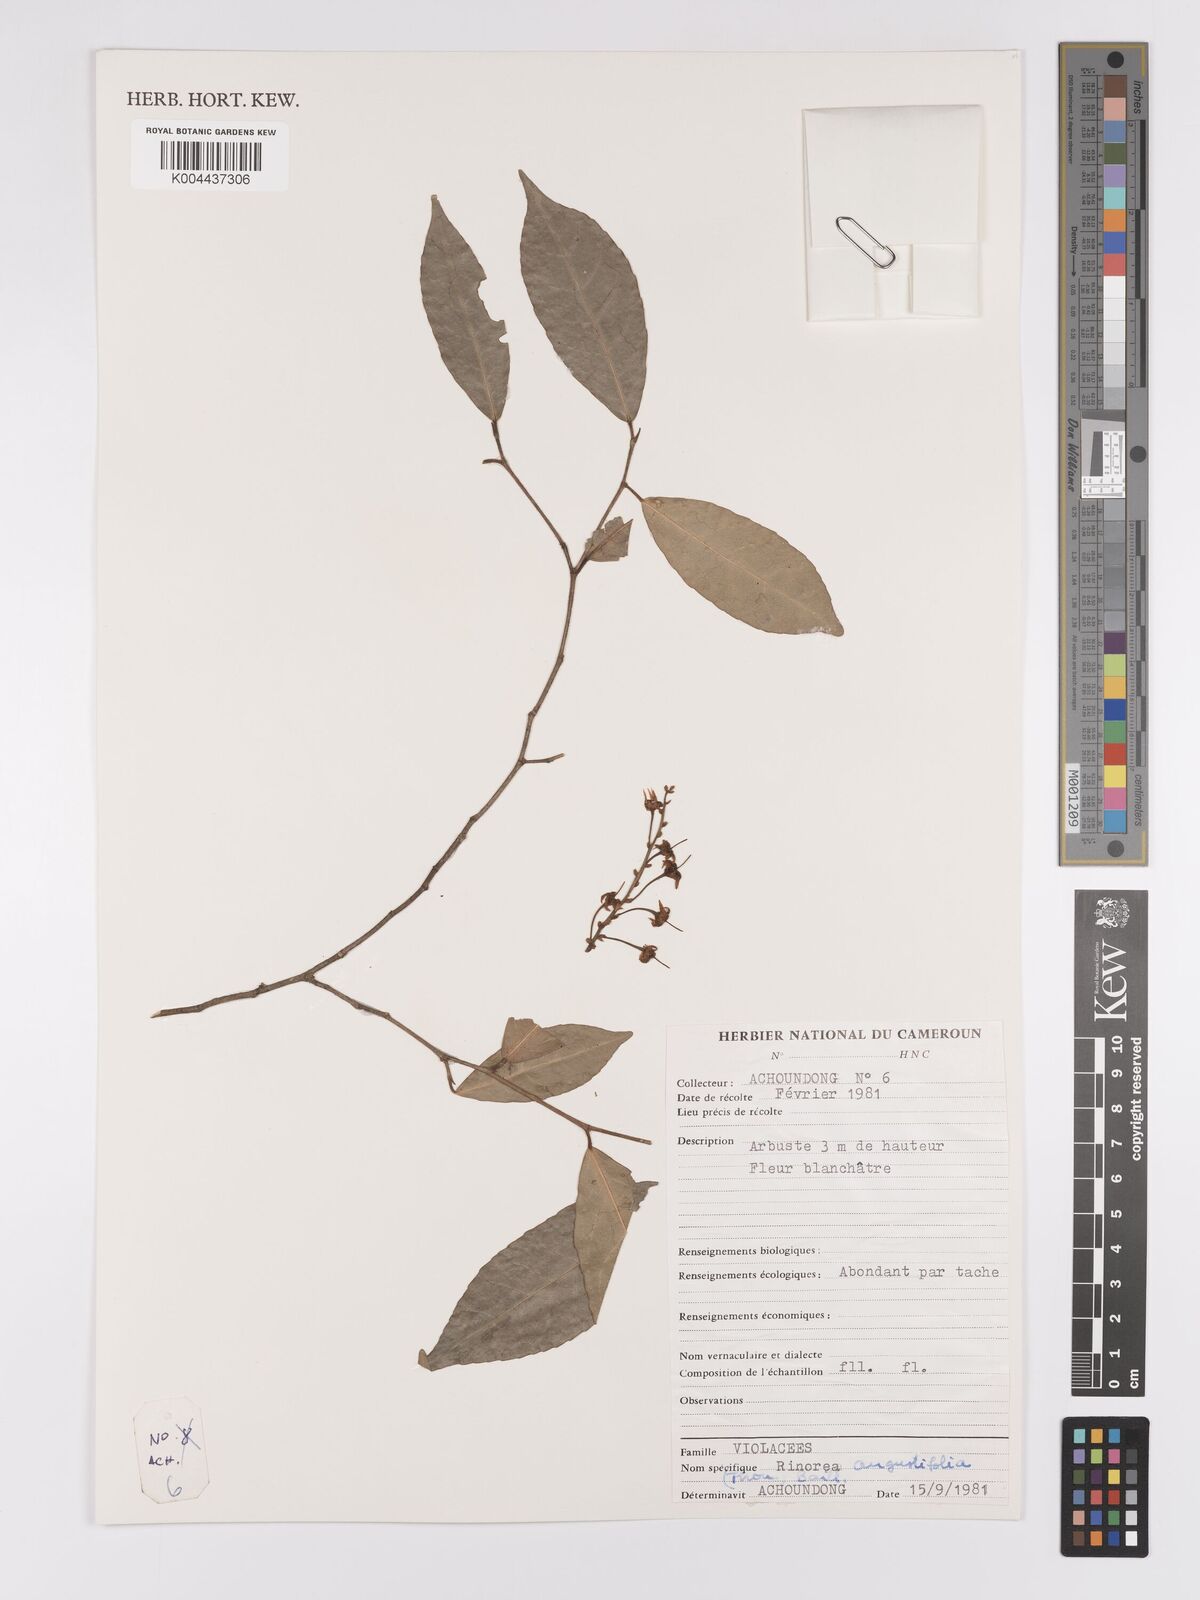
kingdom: Plantae
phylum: Tracheophyta
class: Magnoliopsida
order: Malpighiales
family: Violaceae
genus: Rinorea
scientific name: Rinorea angustifolia
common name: White violet-bush
